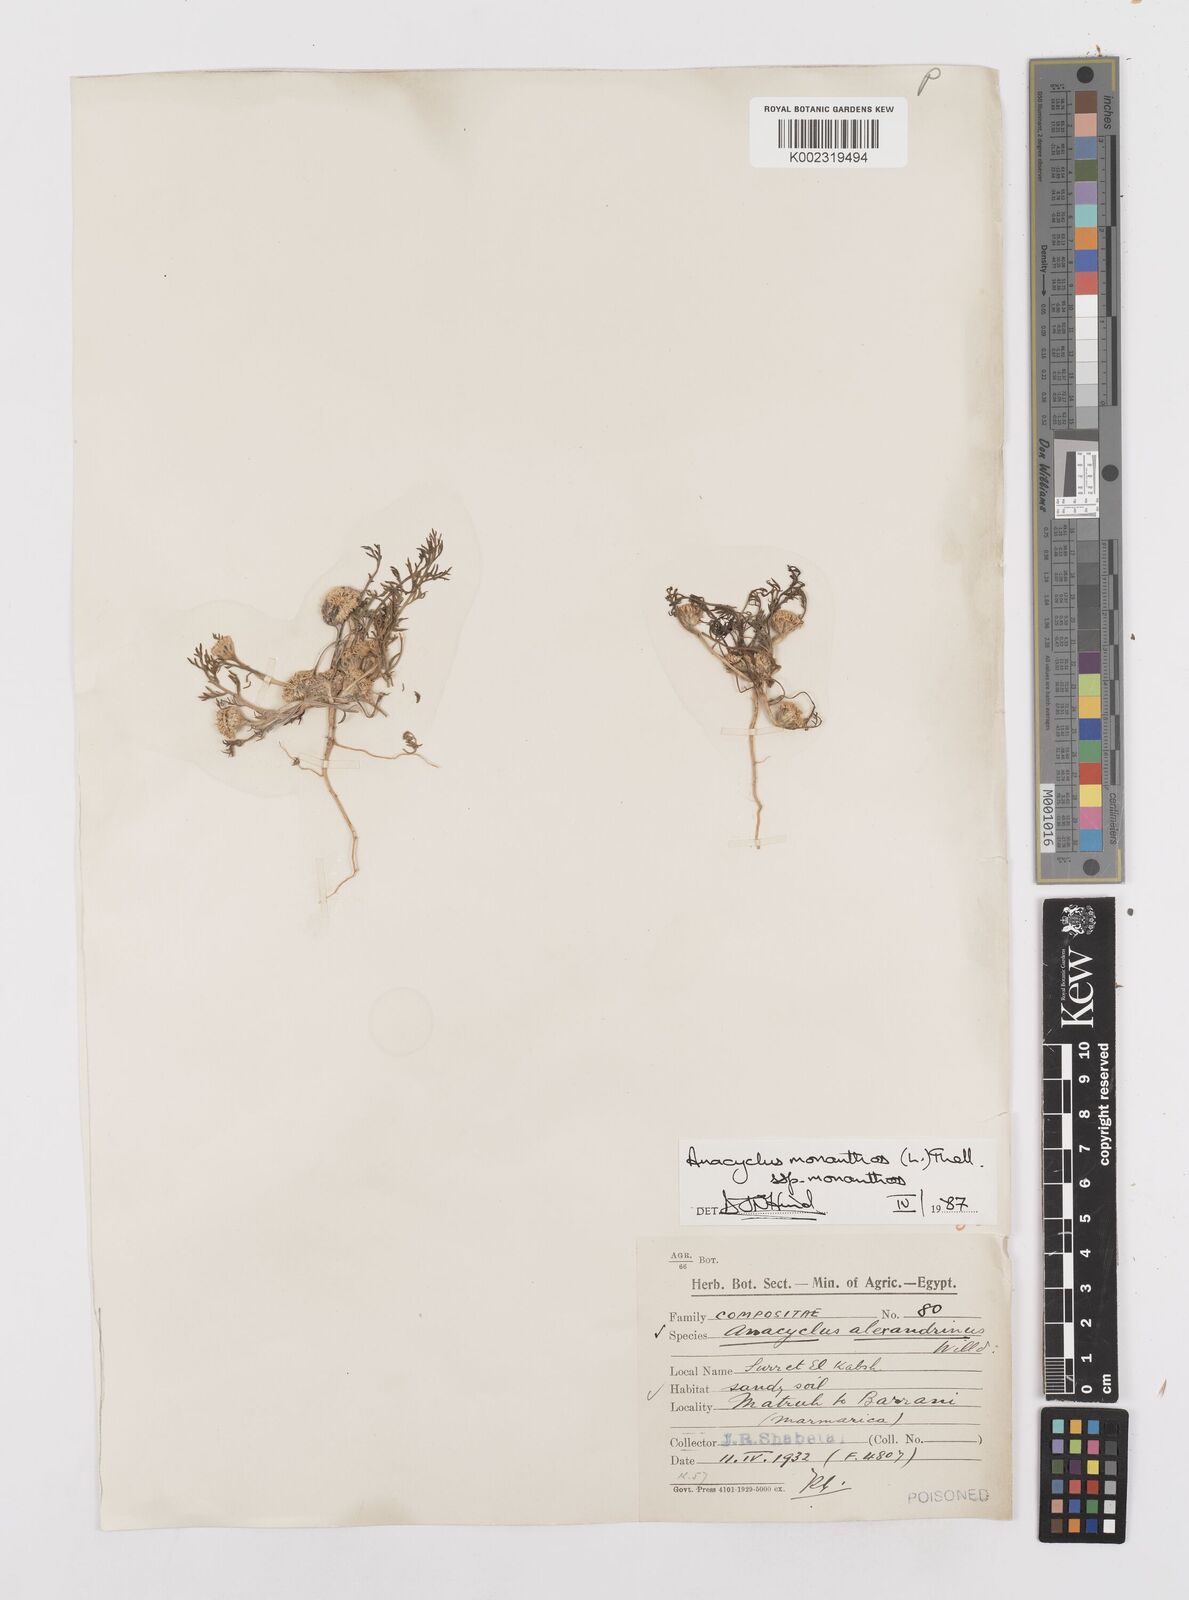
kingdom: Plantae
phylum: Tracheophyta
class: Magnoliopsida
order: Asterales
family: Asteraceae
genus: Anacyclus
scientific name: Anacyclus monanthos
